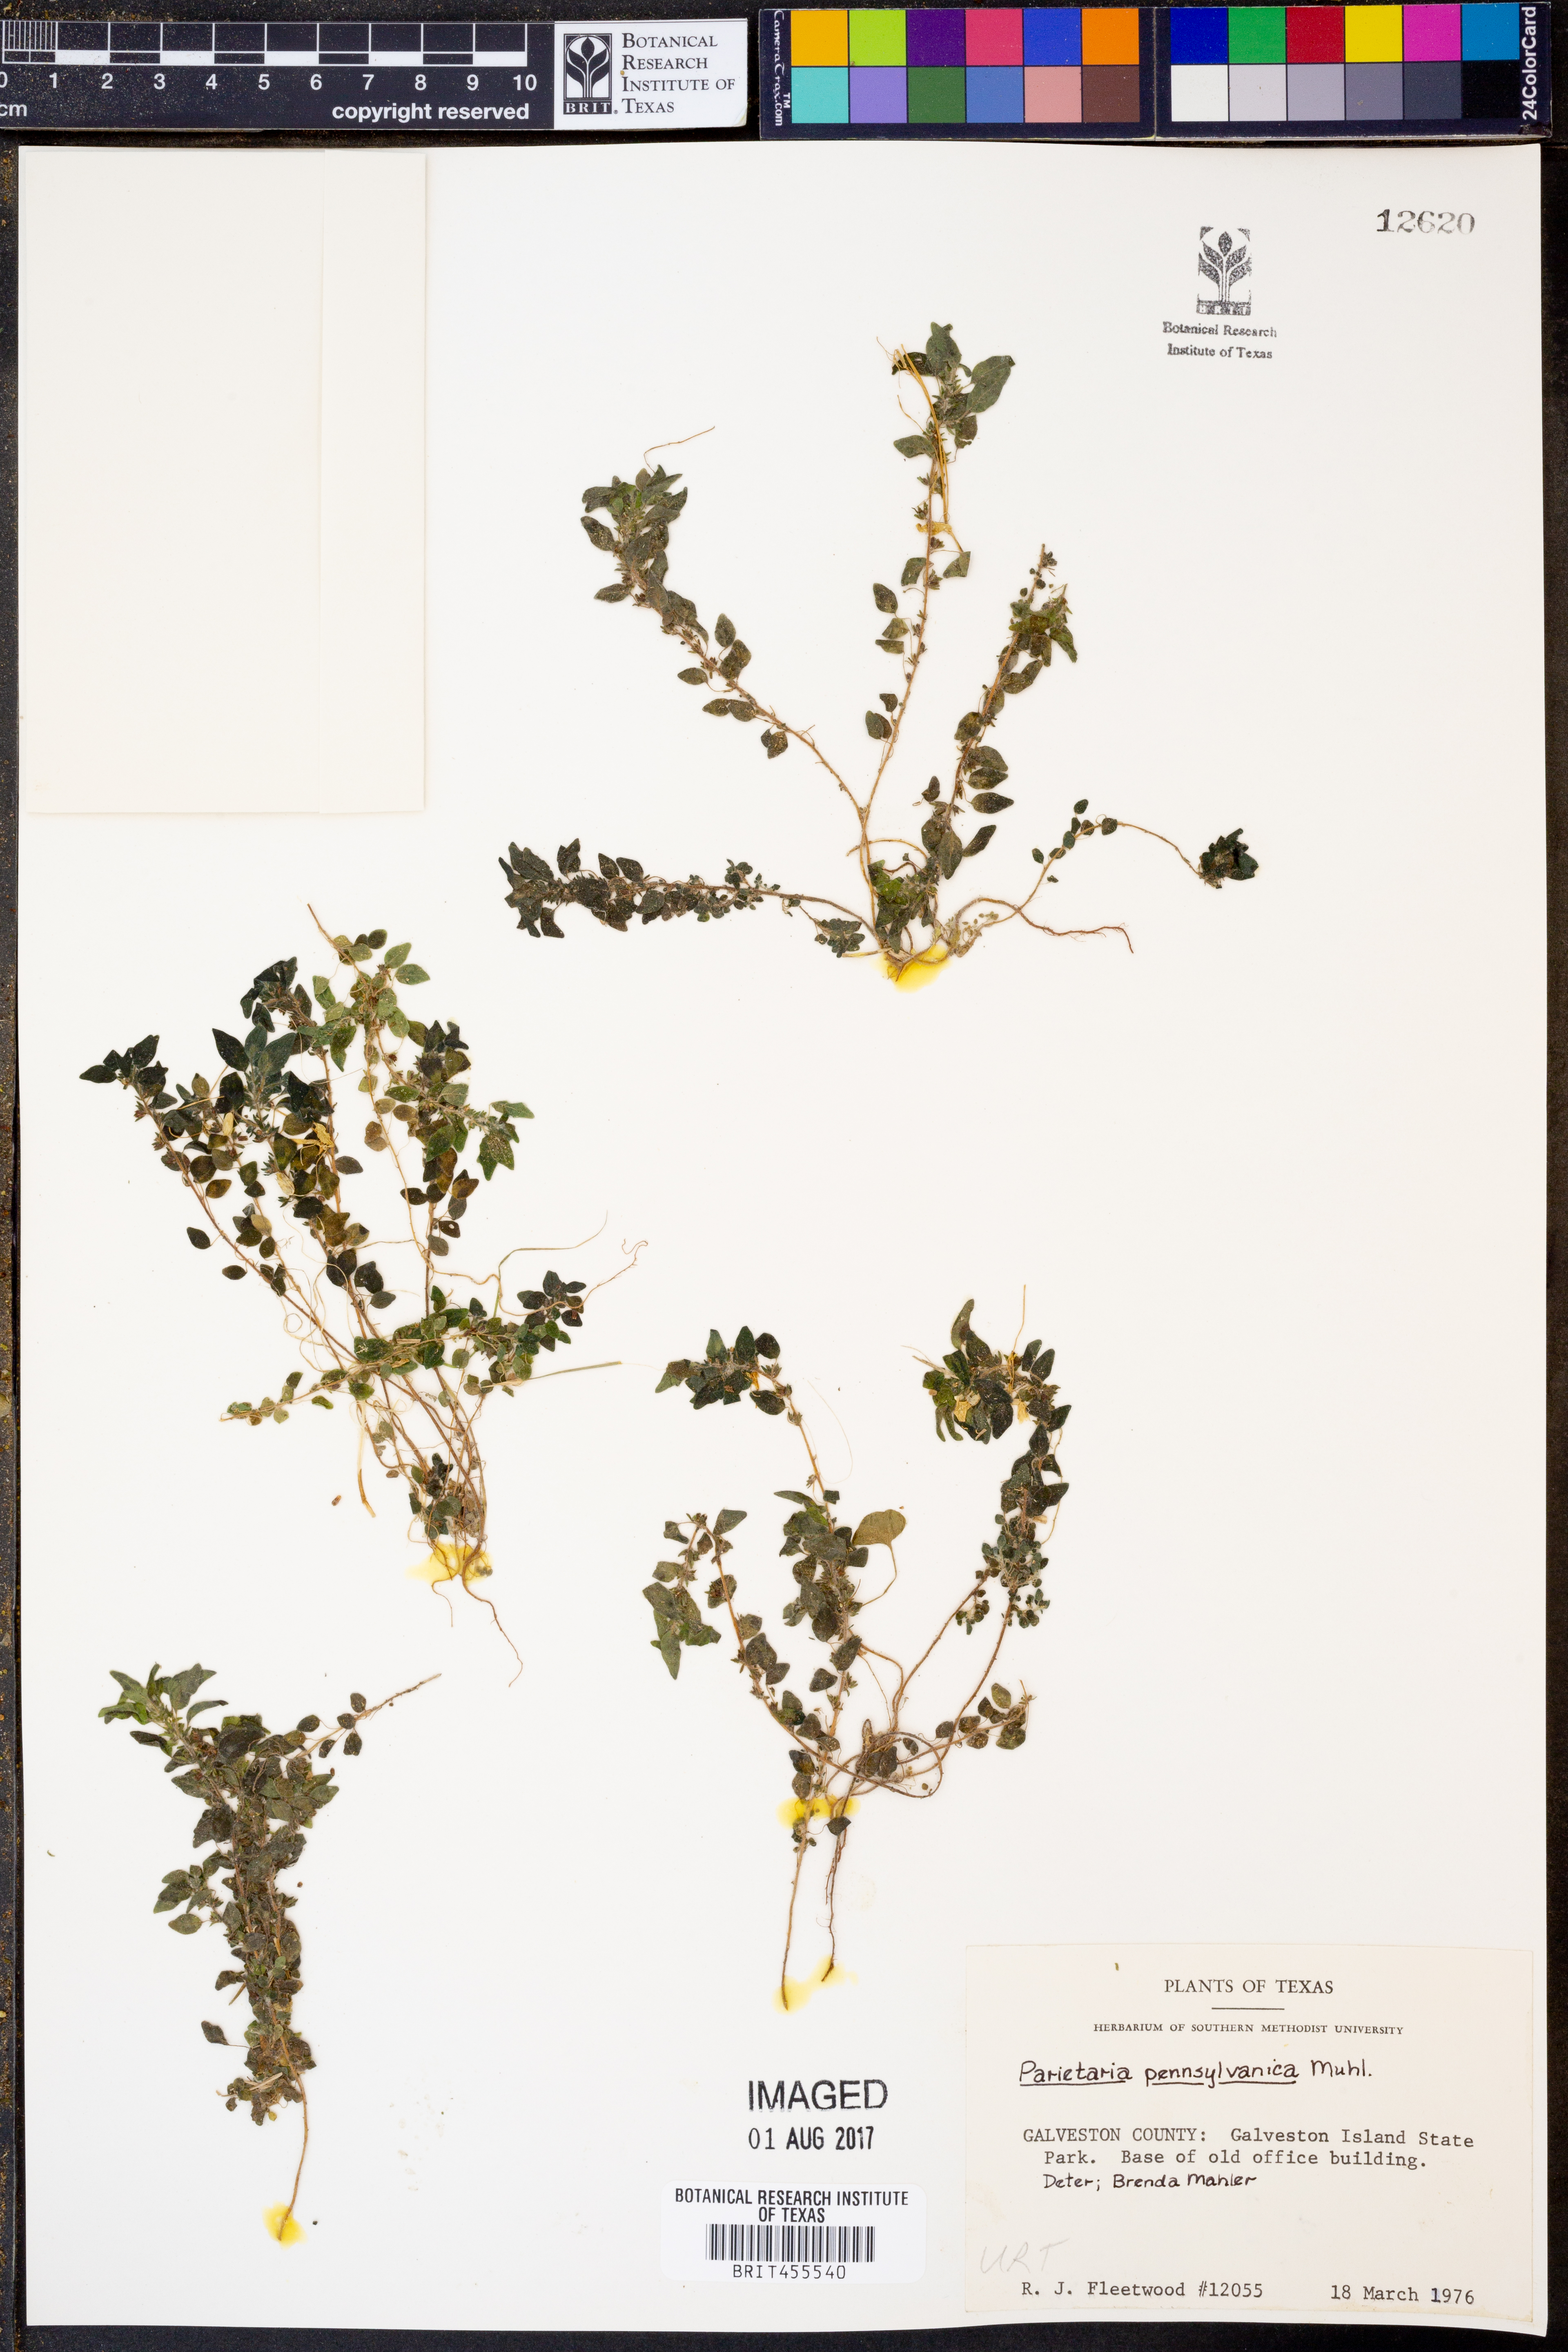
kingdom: Plantae
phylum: Tracheophyta
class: Magnoliopsida
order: Rosales
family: Urticaceae
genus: Parietaria
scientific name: Parietaria pensylvanica
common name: Pennsylvania pellitory
